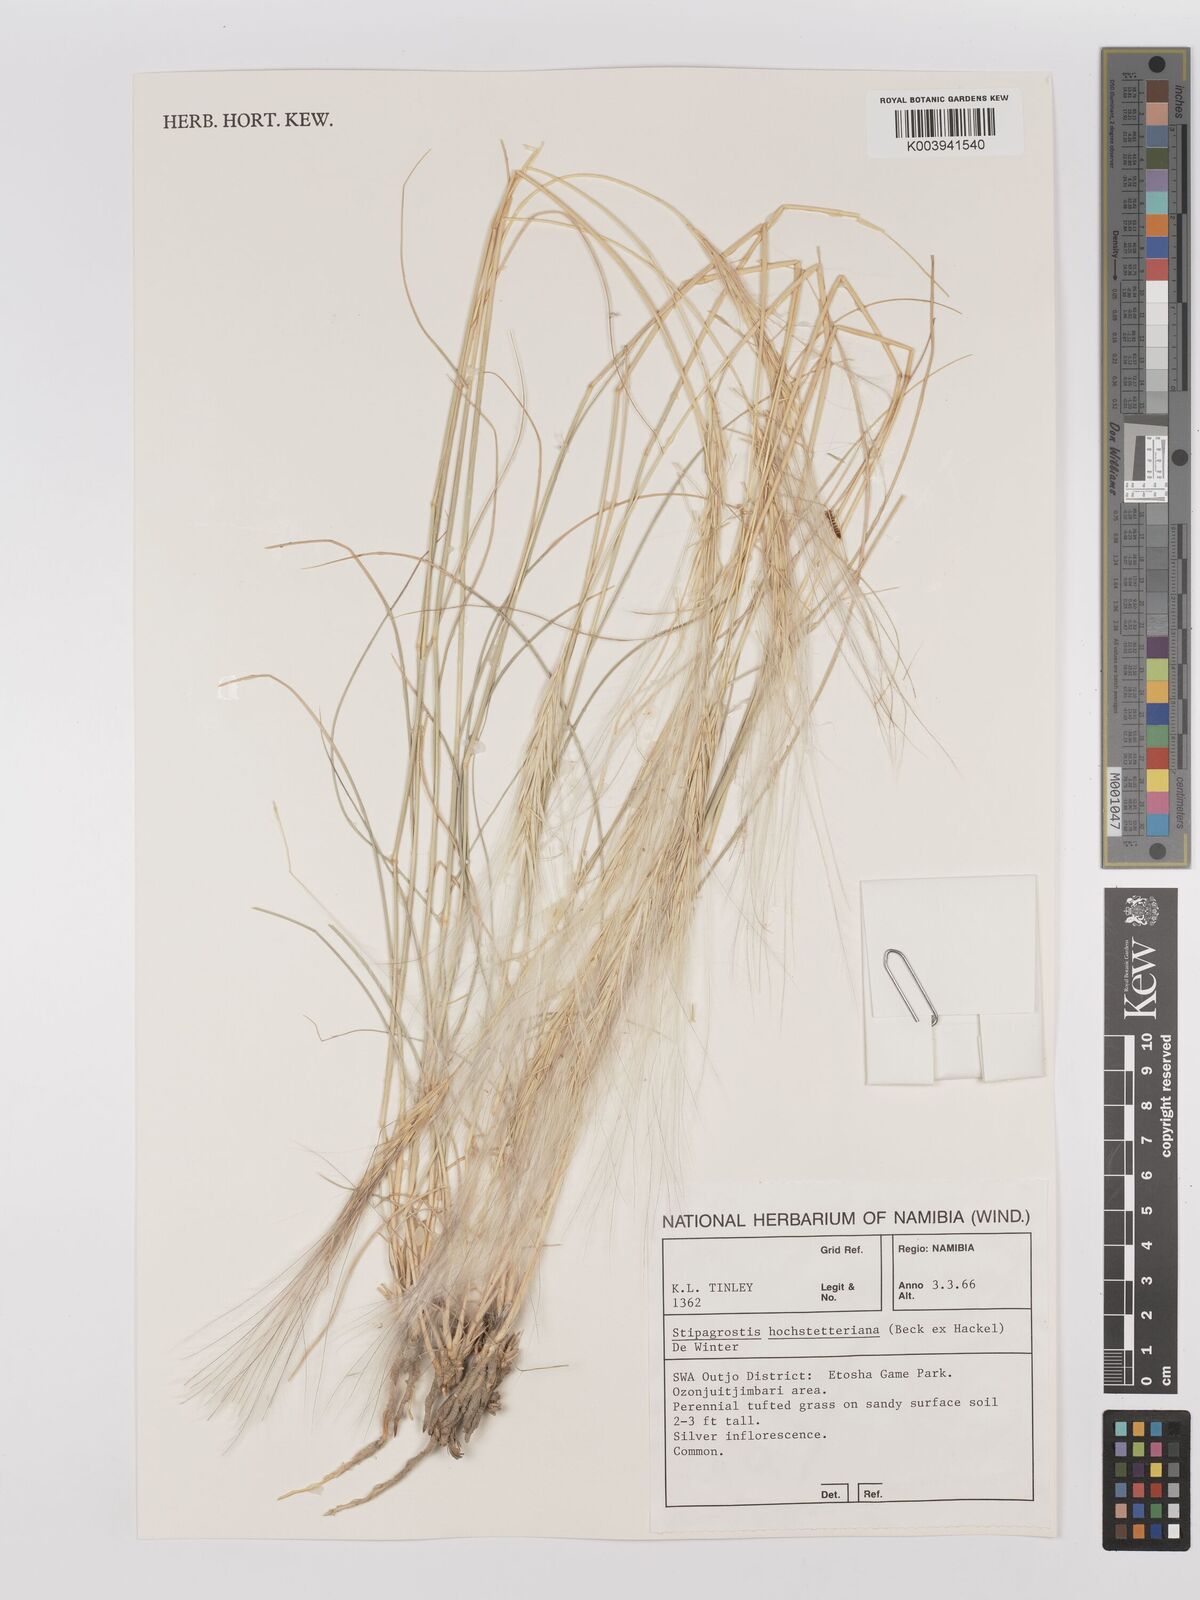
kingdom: Plantae
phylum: Tracheophyta
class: Liliopsida
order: Poales
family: Poaceae
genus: Stipagrostis
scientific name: Stipagrostis hochstetteriana
